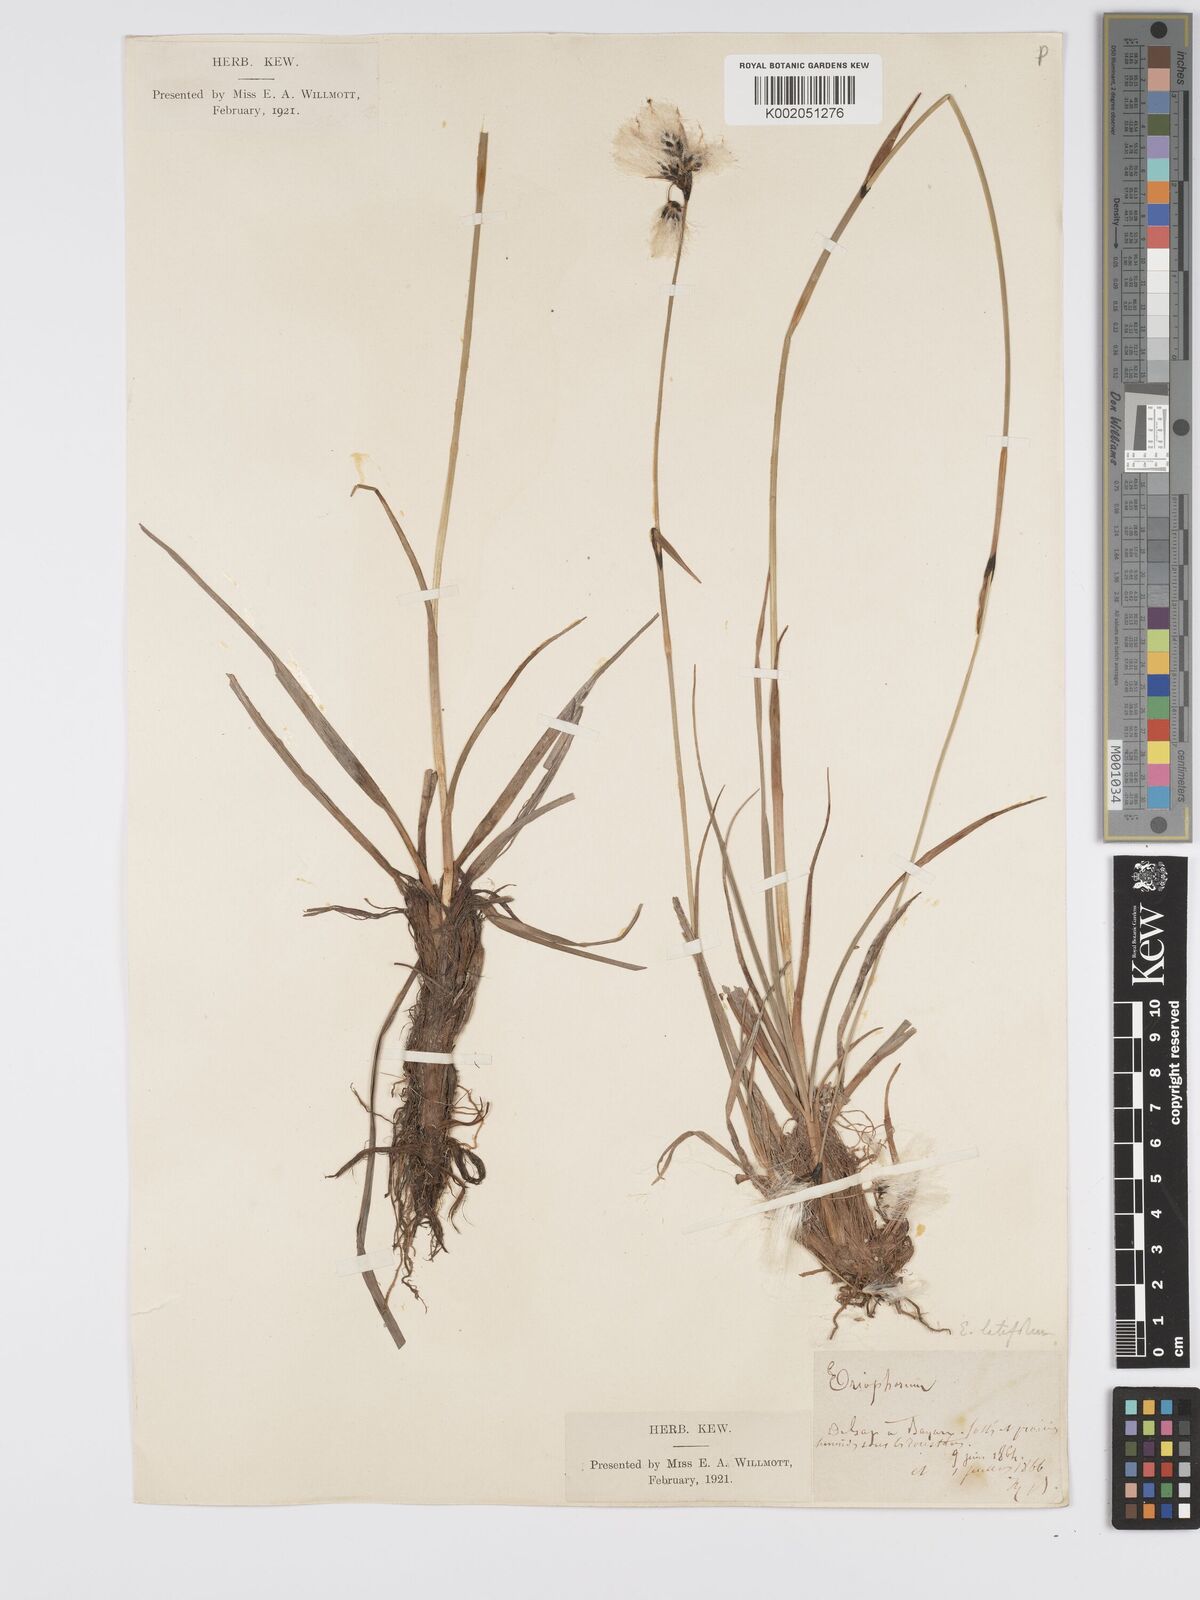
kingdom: Plantae
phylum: Tracheophyta
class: Liliopsida
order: Poales
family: Cyperaceae
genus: Eriophorum
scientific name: Eriophorum latifolium
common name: Broad-leaved cottongrass
